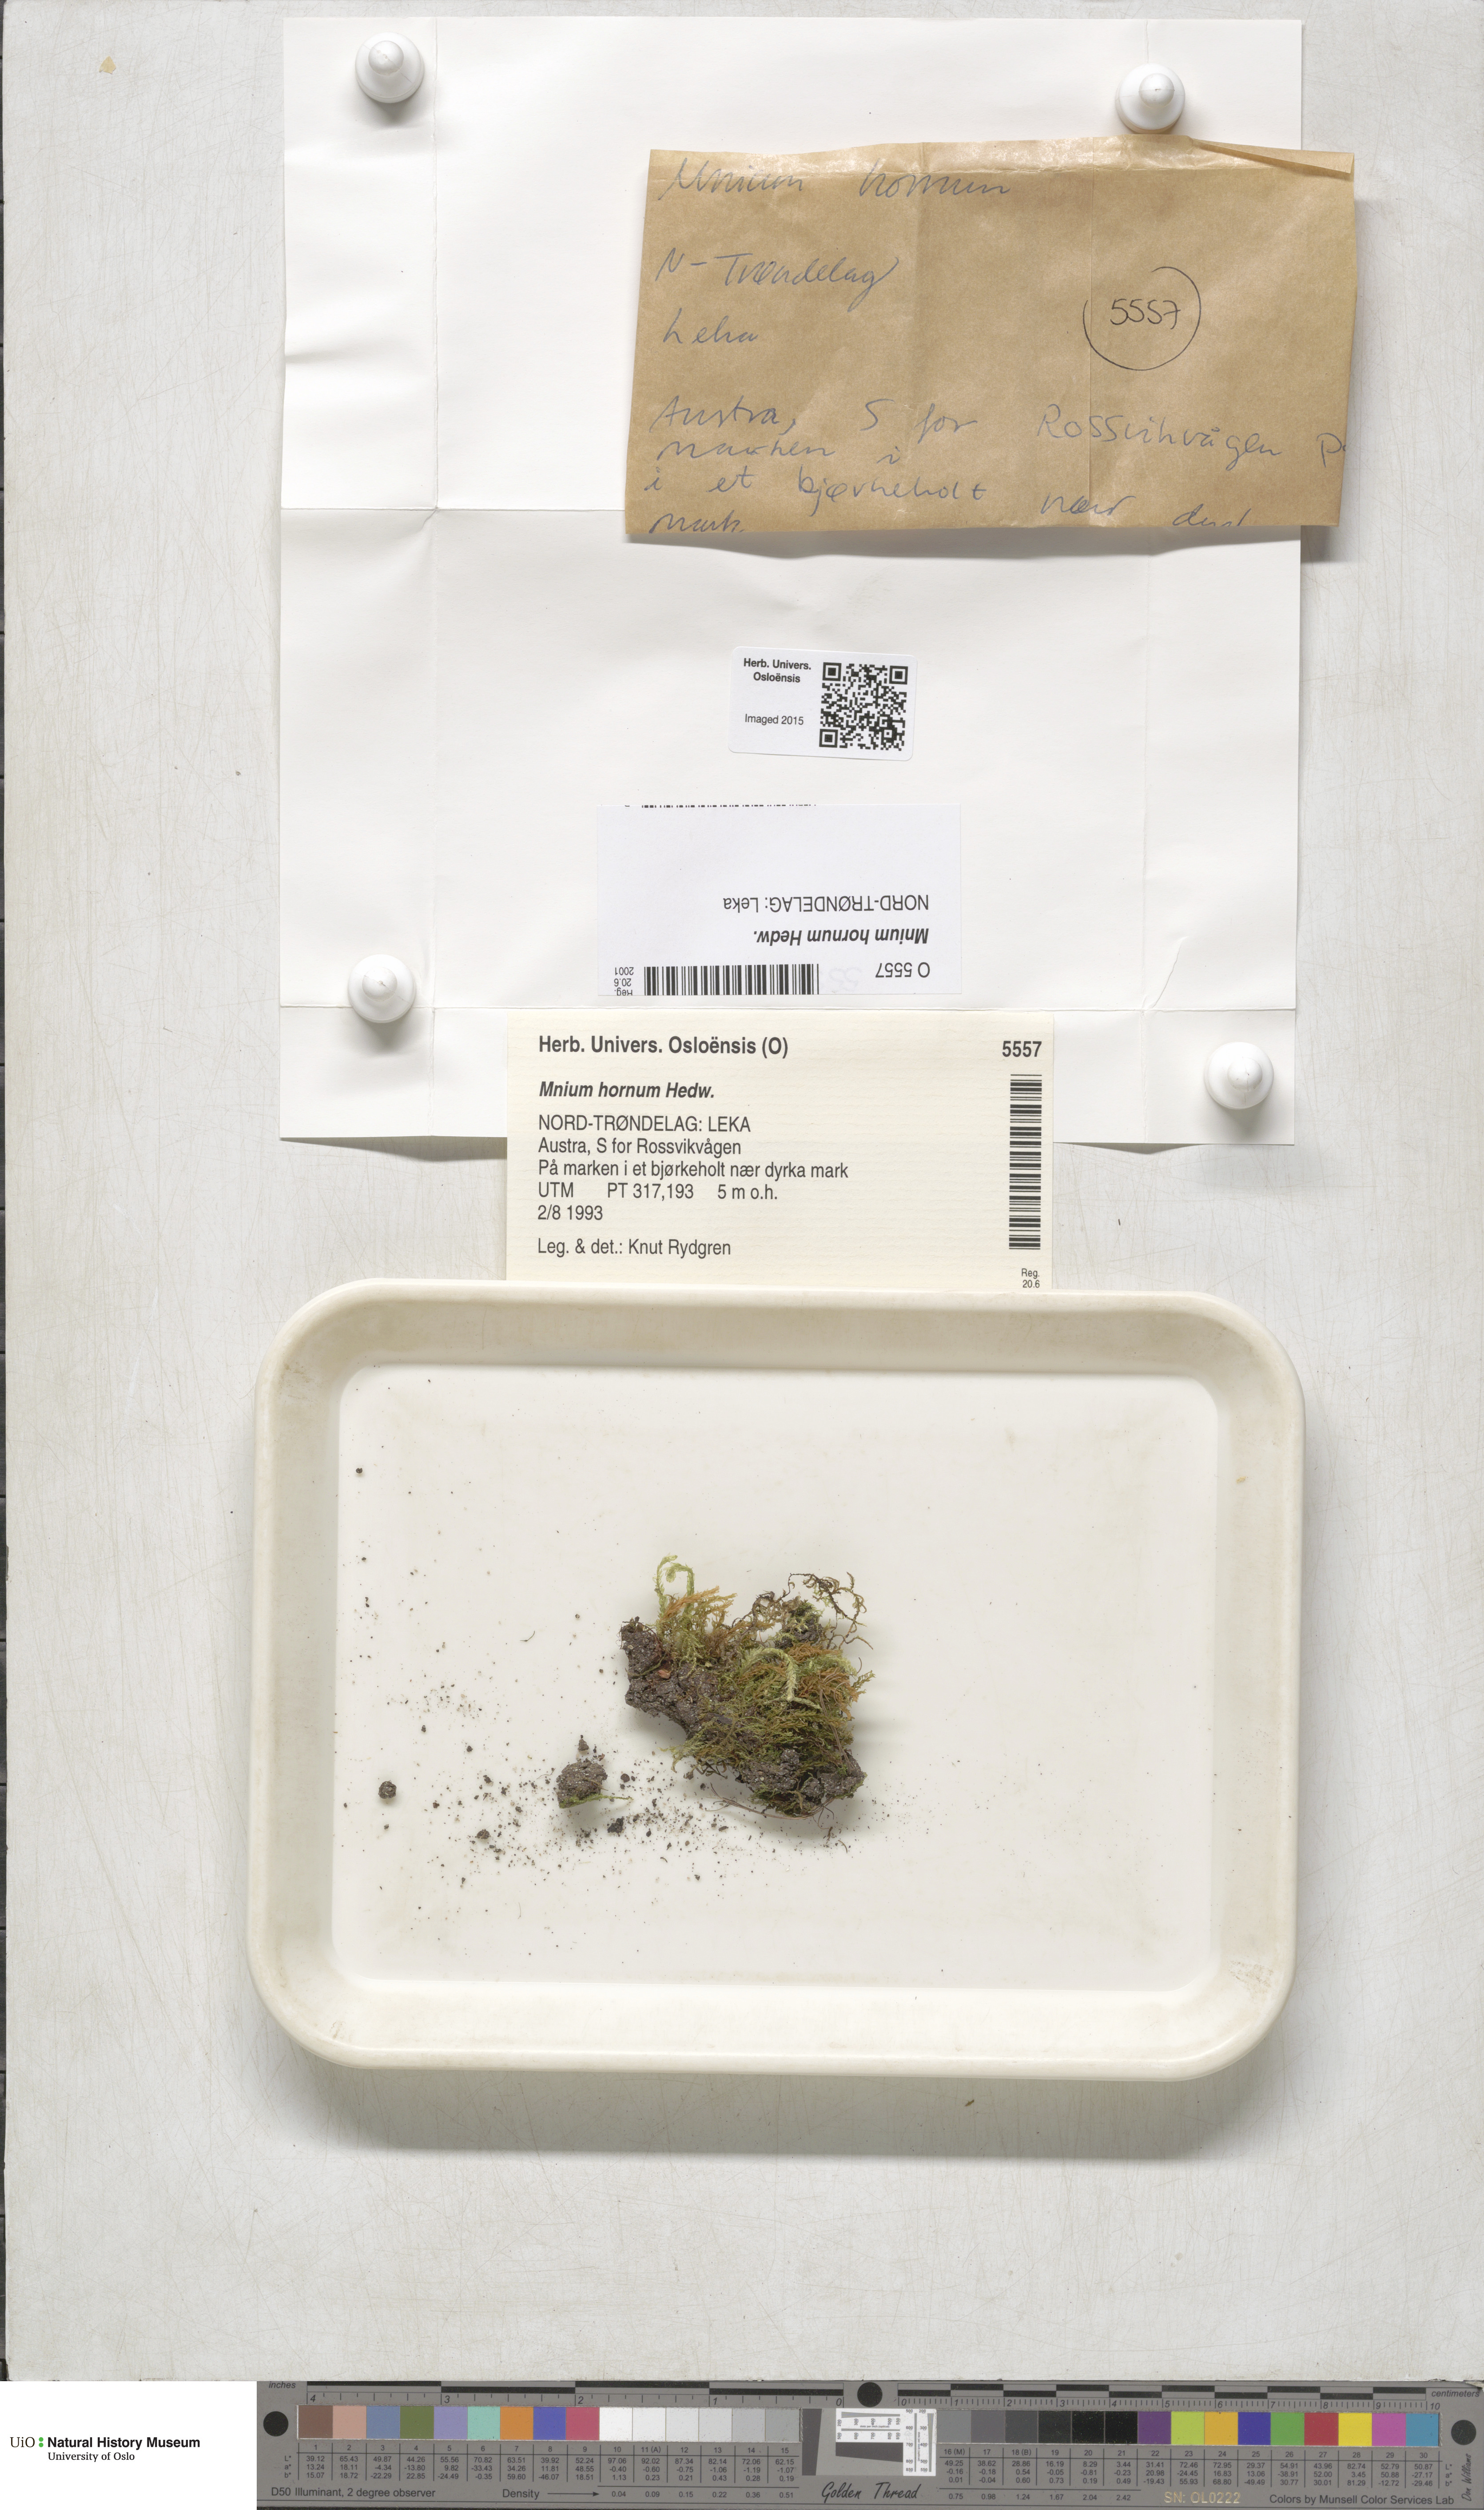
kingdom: Plantae
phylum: Bryophyta
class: Bryopsida
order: Bryales
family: Mniaceae
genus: Mnium
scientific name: Mnium hornum
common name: Swan's-neck leafy moss
